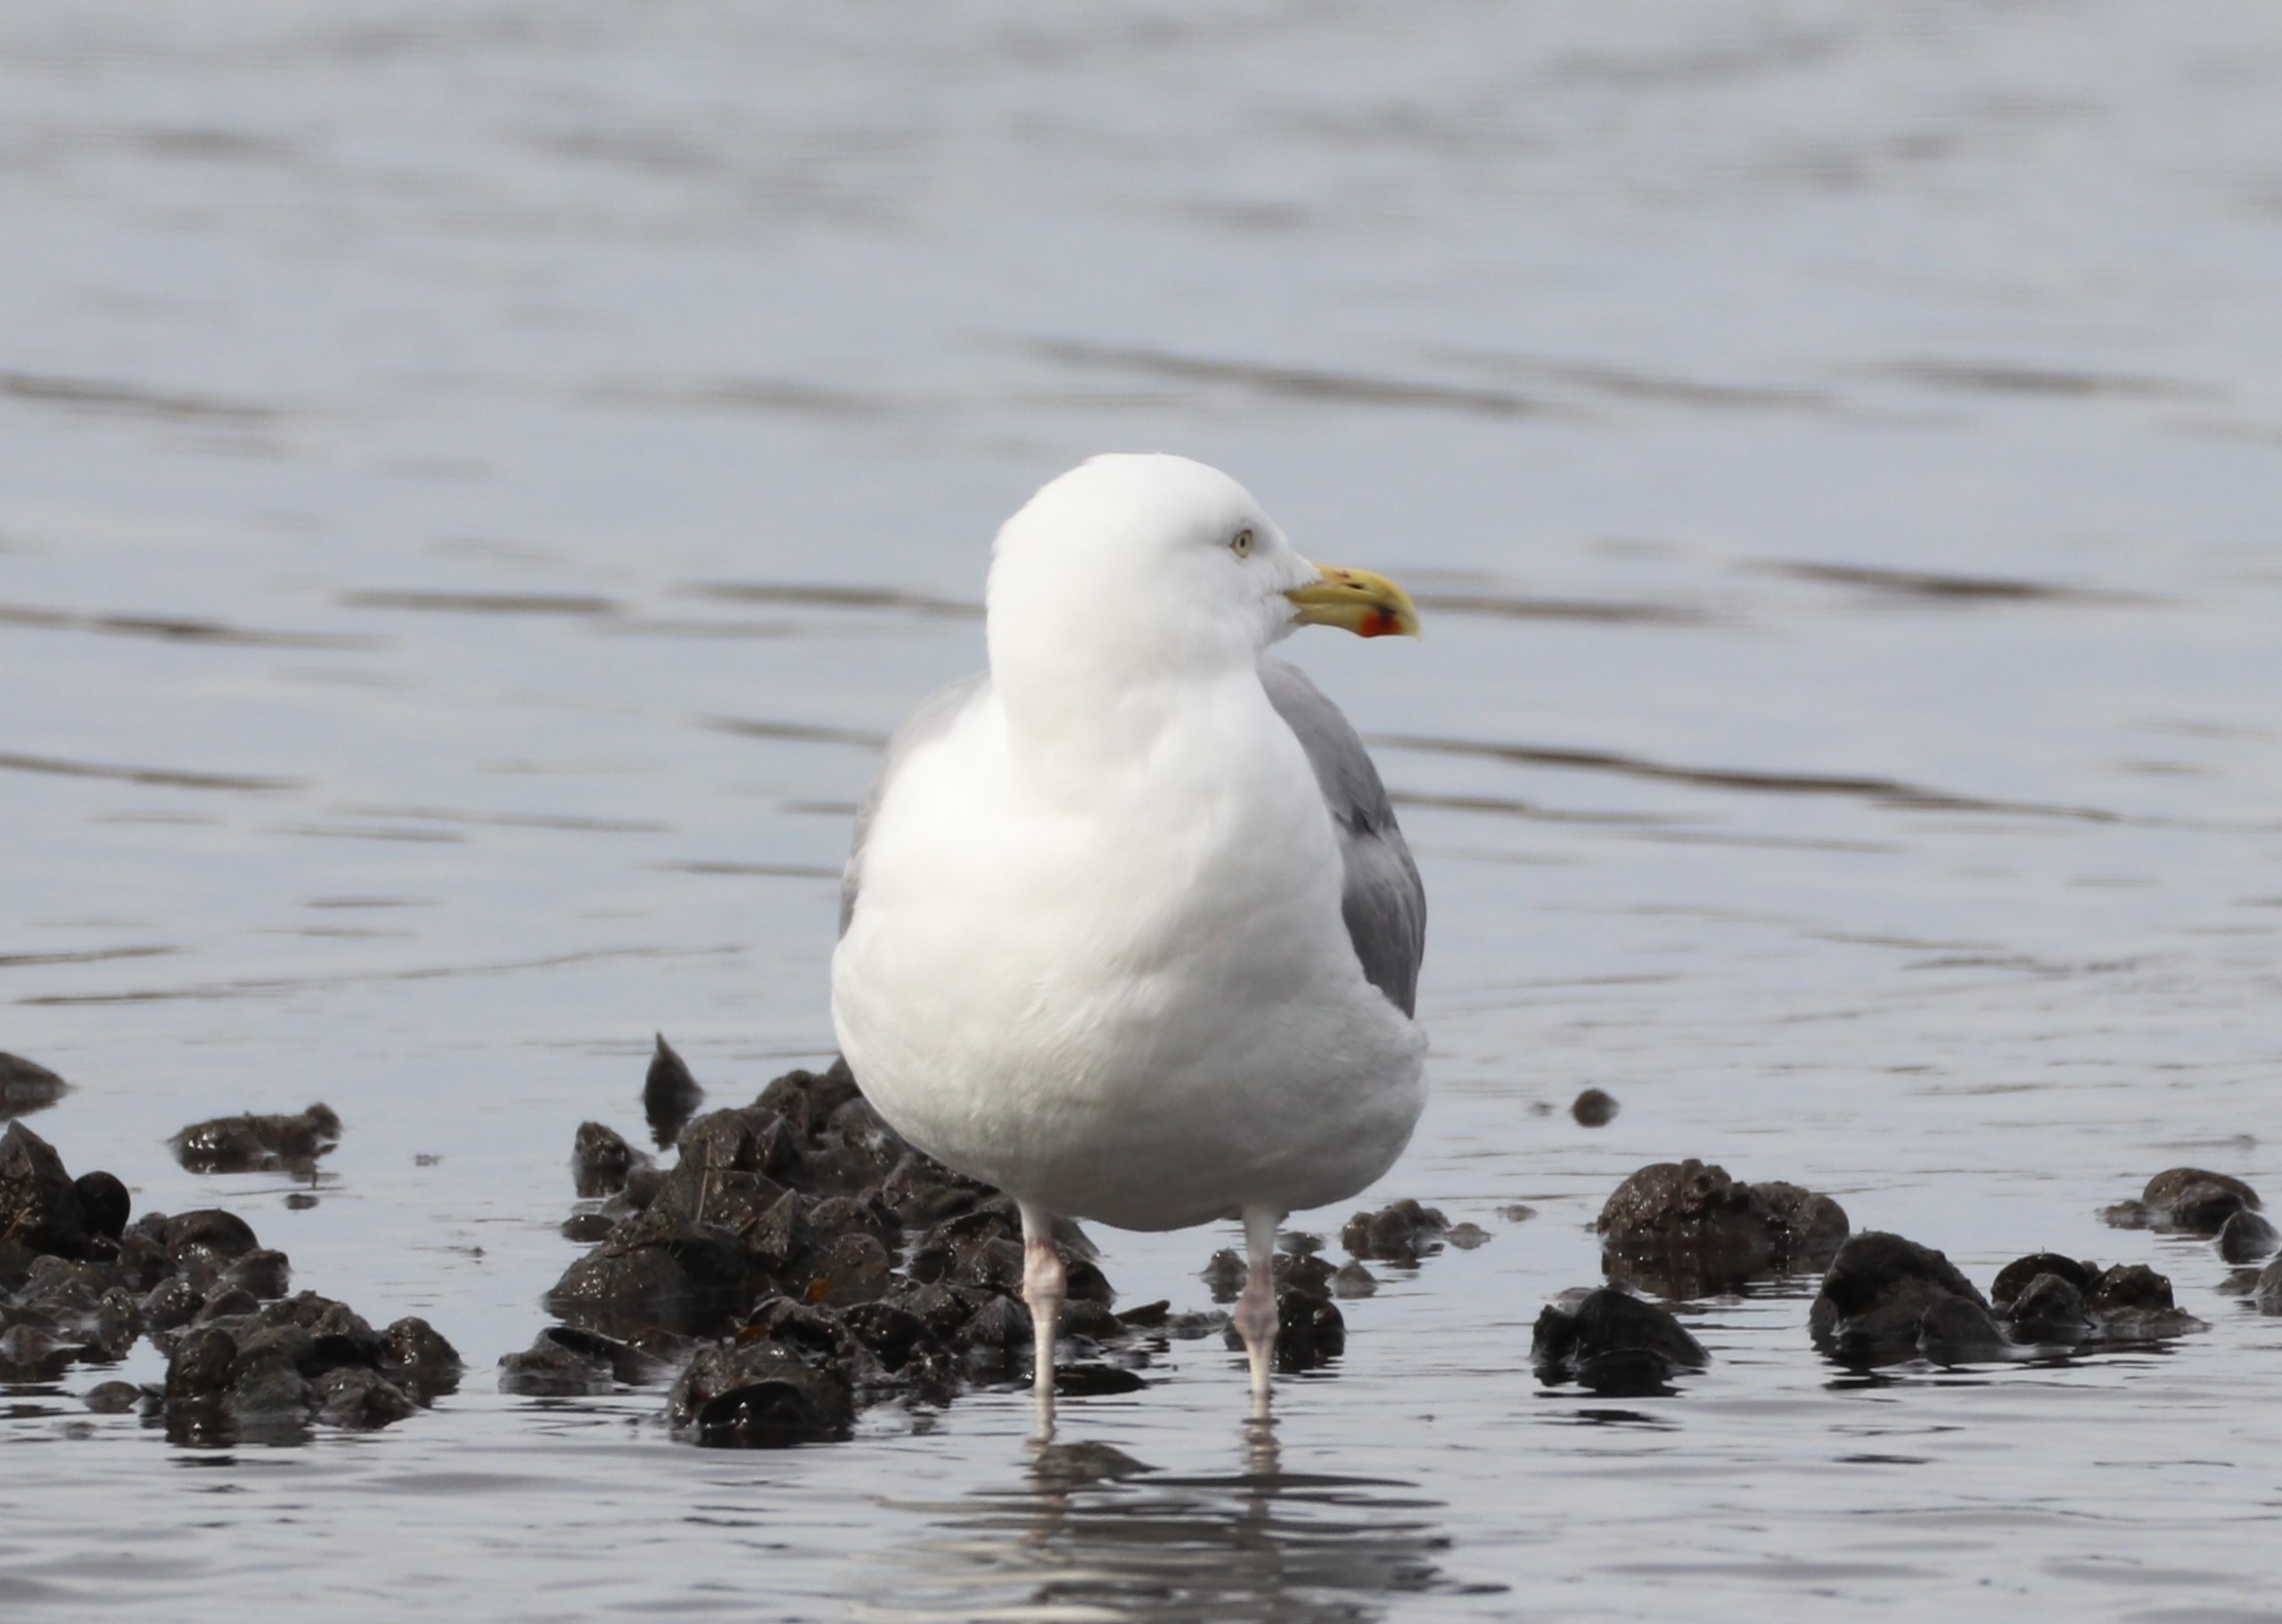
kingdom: Animalia
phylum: Chordata
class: Aves
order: Charadriiformes
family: Laridae
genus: Larus
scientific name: Larus argentatus
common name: Sølvmåge
